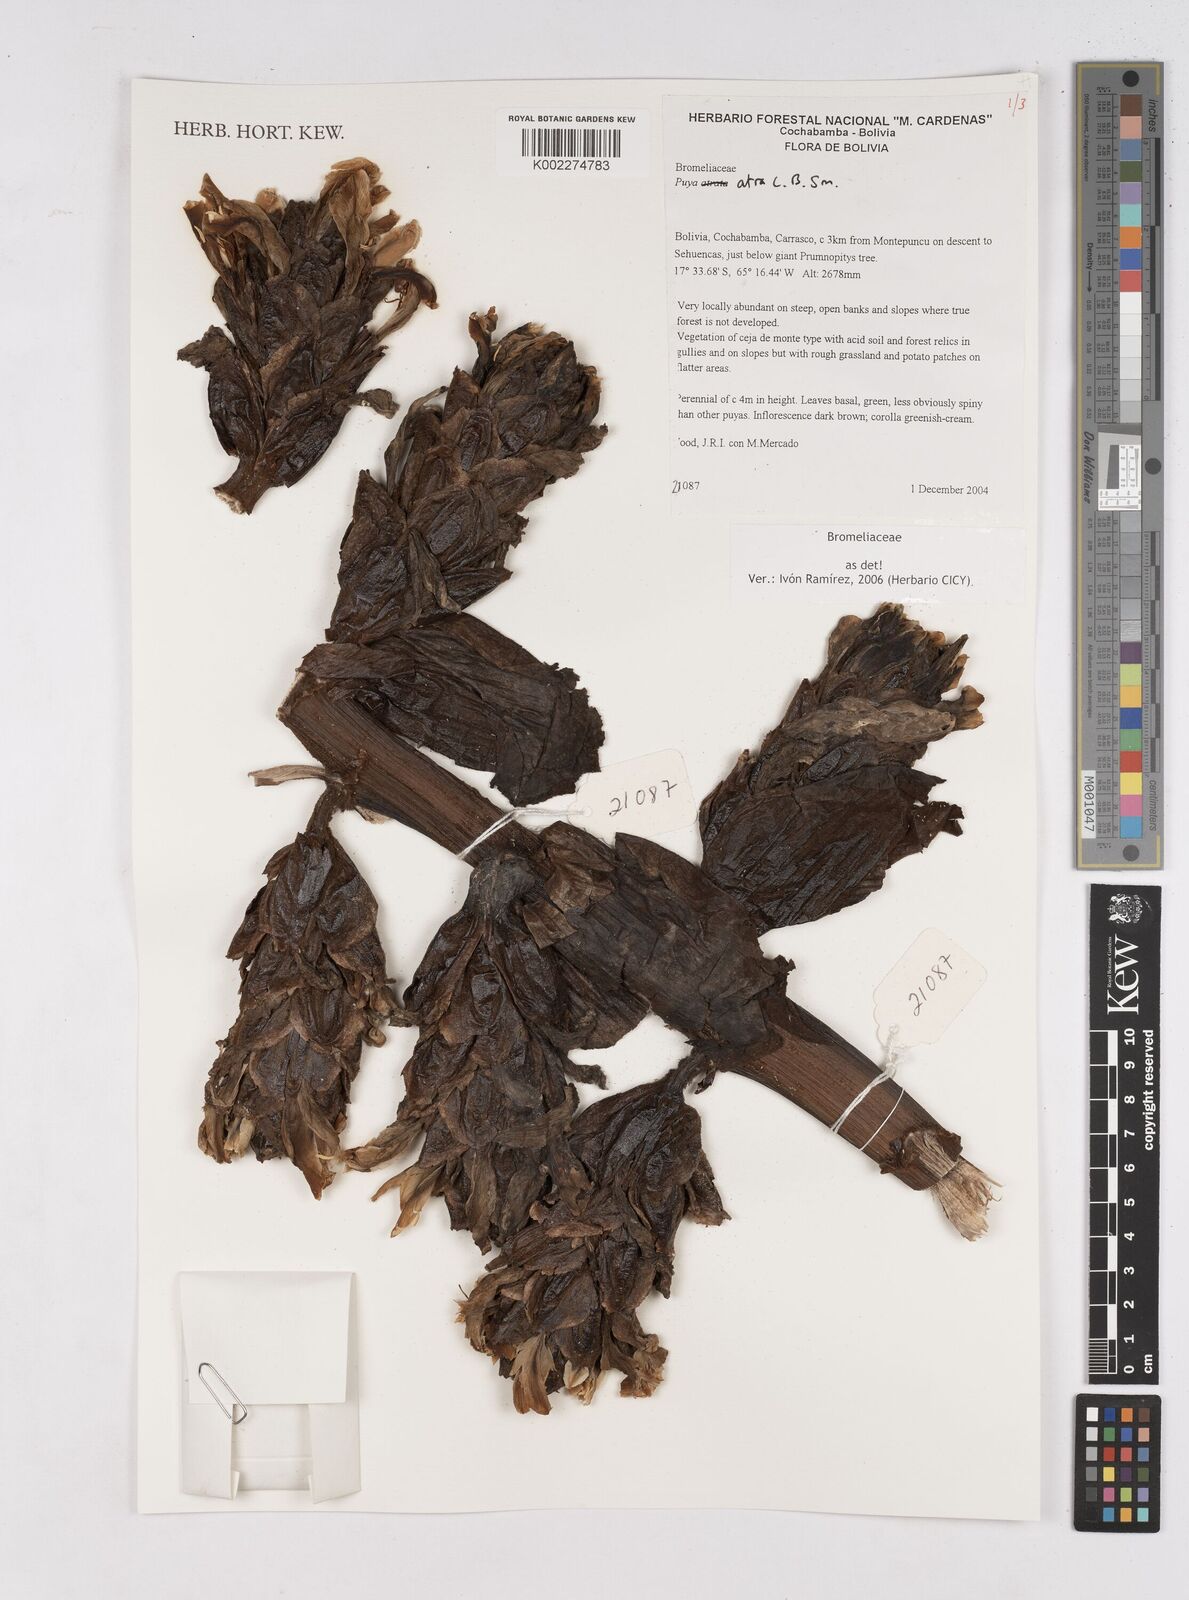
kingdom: Plantae
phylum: Tracheophyta
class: Liliopsida
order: Poales
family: Bromeliaceae
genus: Puya
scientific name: Puya atra
